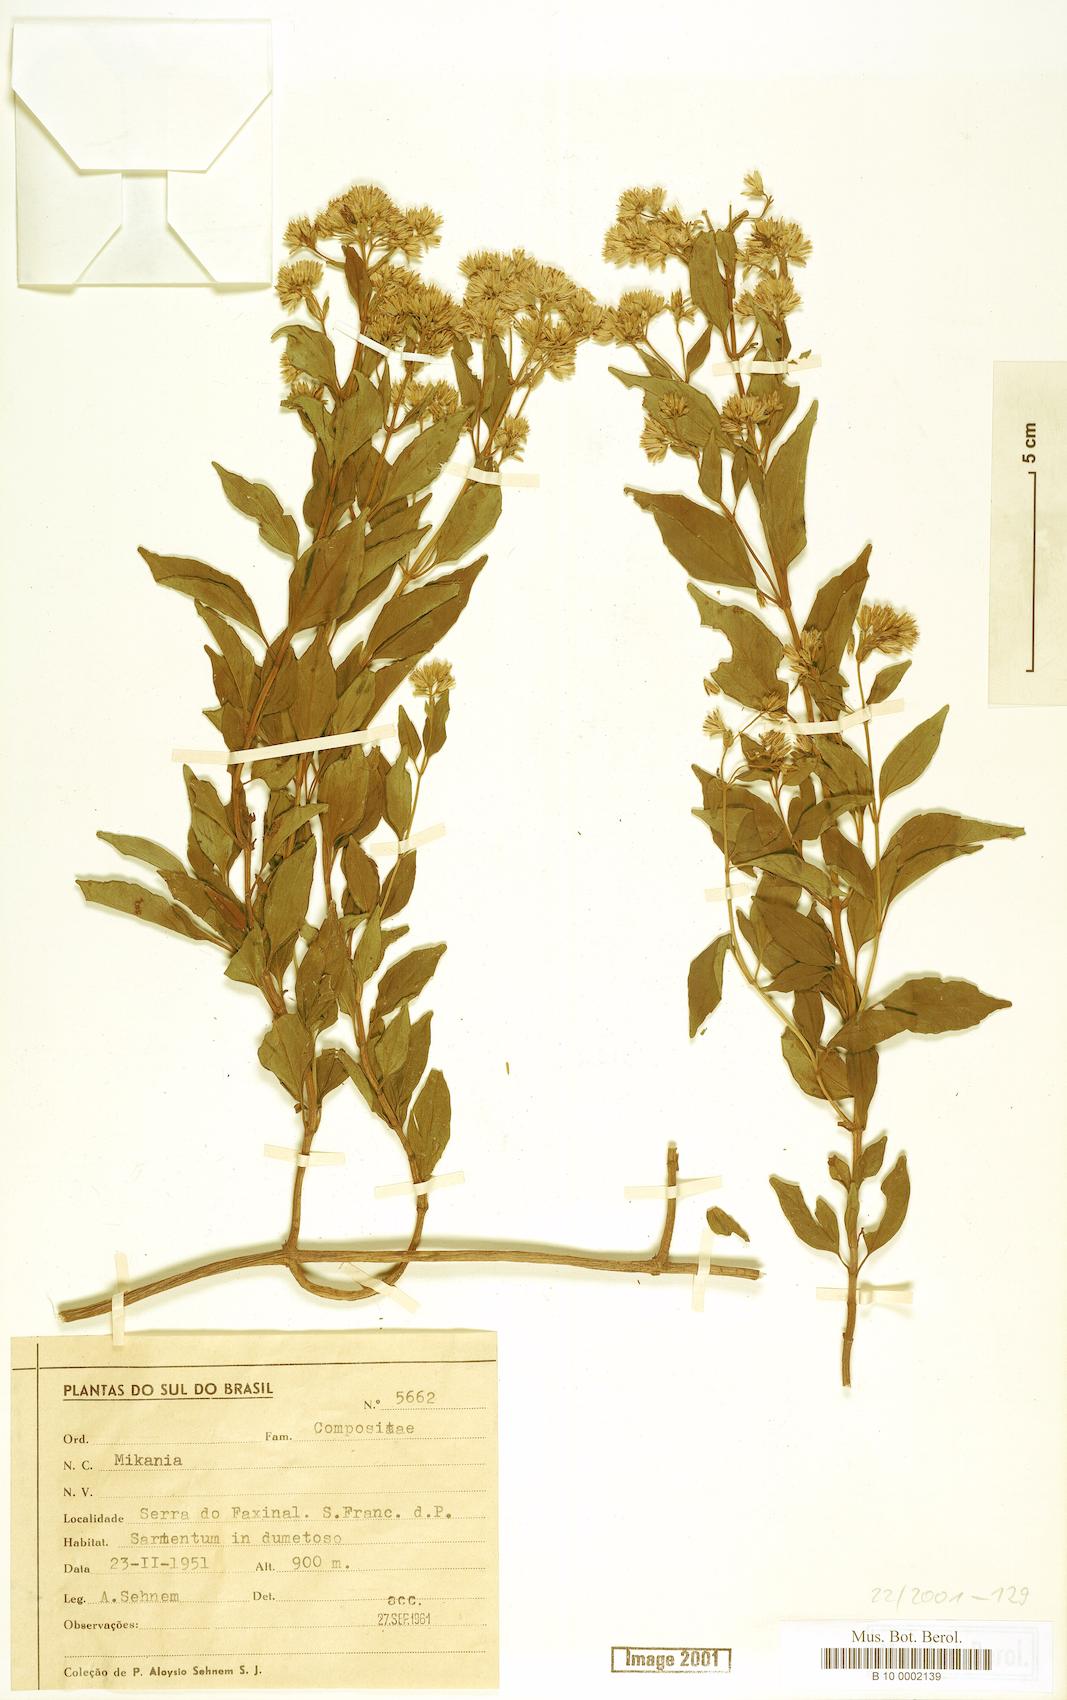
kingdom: Plantae
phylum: Tracheophyta
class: Magnoliopsida
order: Asterales
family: Asteraceae
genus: Mikania
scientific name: Mikania
